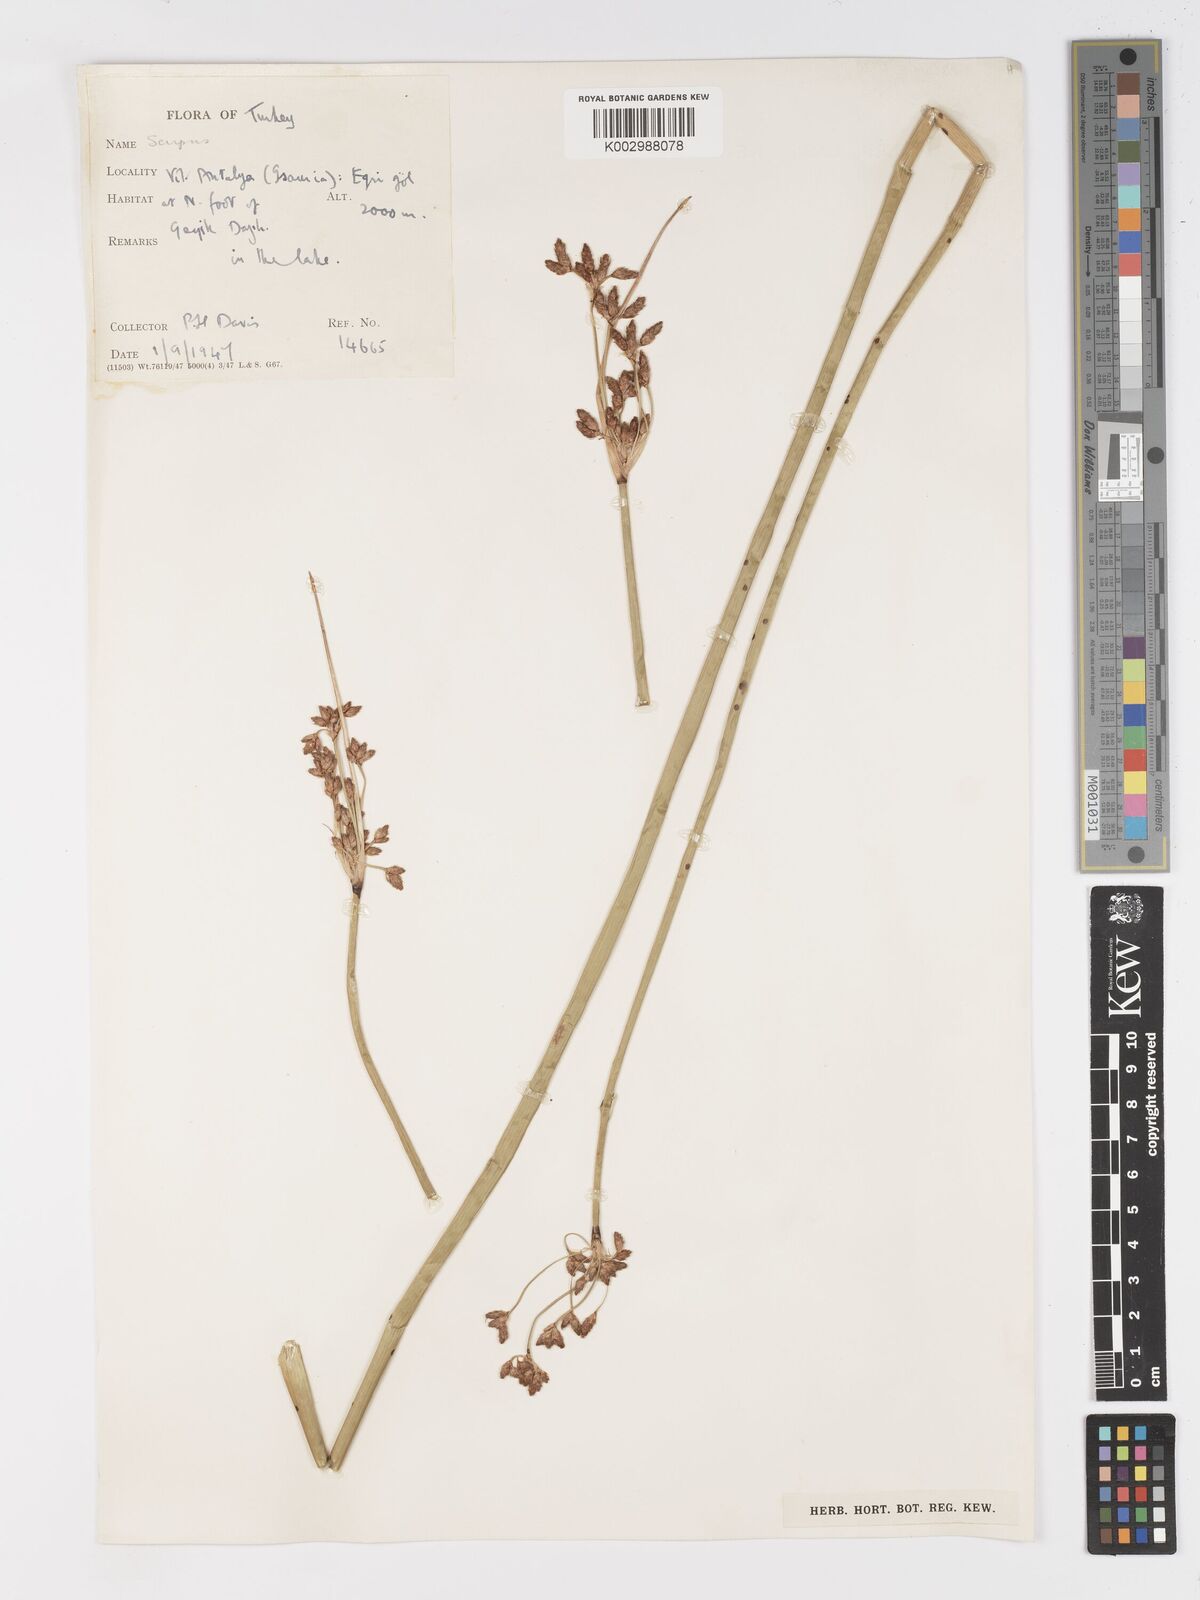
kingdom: Plantae
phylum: Tracheophyta
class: Liliopsida
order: Poales
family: Cyperaceae
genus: Schoenoplectus
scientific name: Schoenoplectus
